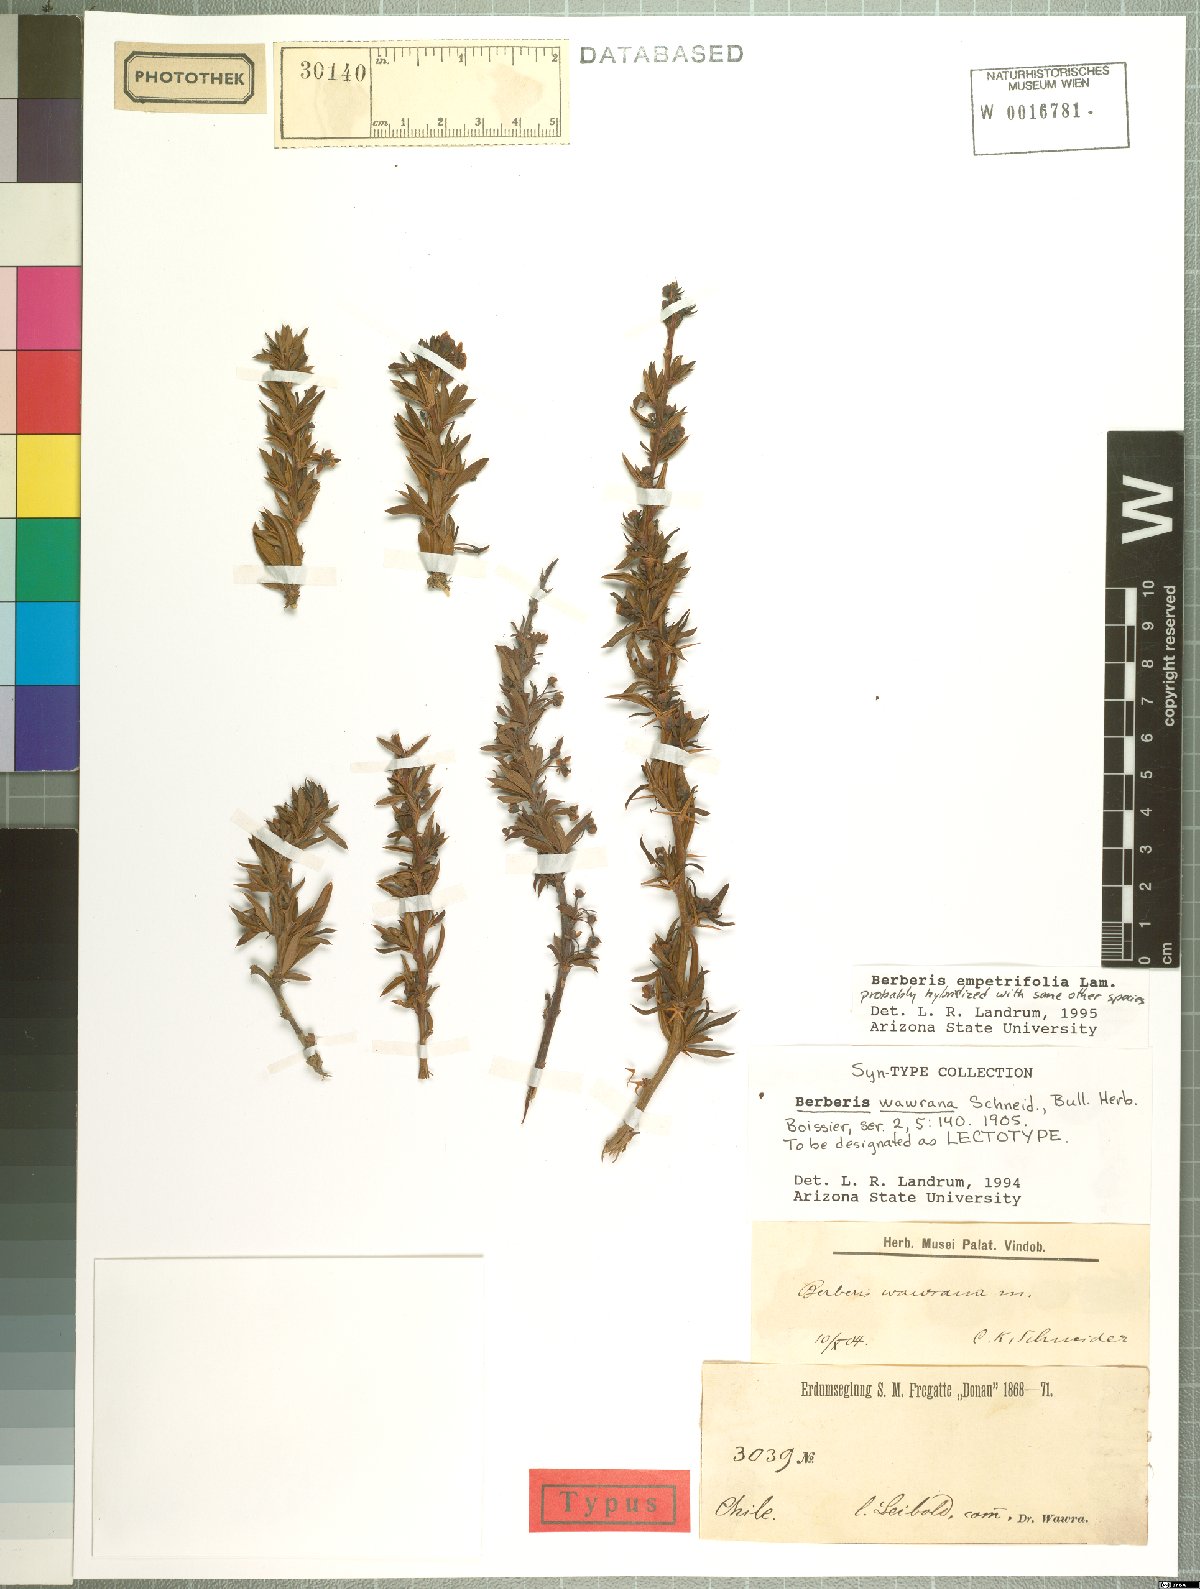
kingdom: Plantae
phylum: Tracheophyta
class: Magnoliopsida
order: Ranunculales
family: Berberidaceae
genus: Berberis
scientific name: Berberis empetrifolia
